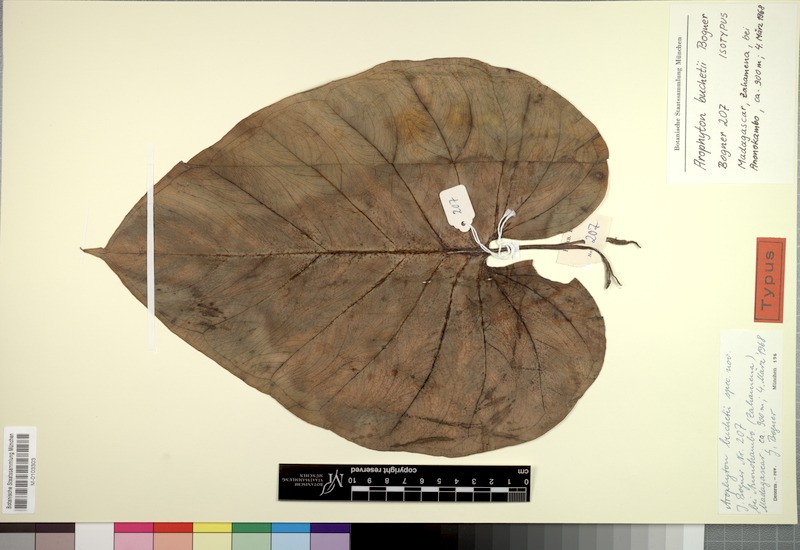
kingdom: Plantae
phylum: Tracheophyta
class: Liliopsida
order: Alismatales
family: Araceae
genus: Arophyton
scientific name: Arophyton buchetii
